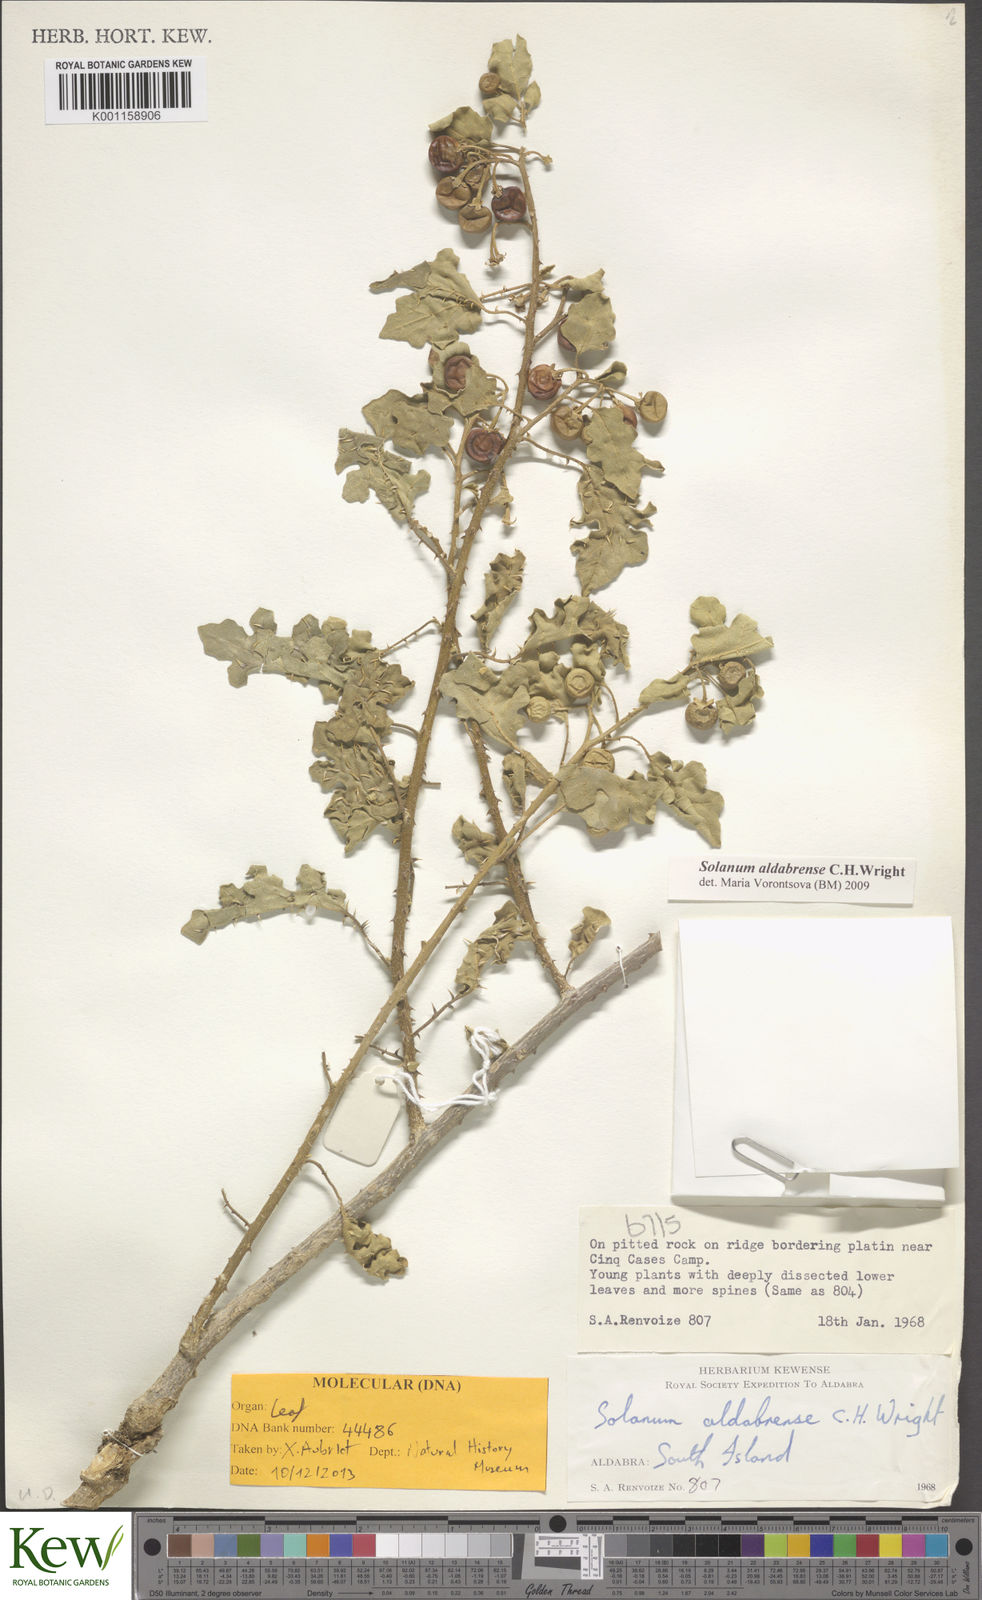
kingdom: Plantae
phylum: Tracheophyta
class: Magnoliopsida
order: Solanales
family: Solanaceae
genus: Solanum
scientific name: Solanum aldabrense
